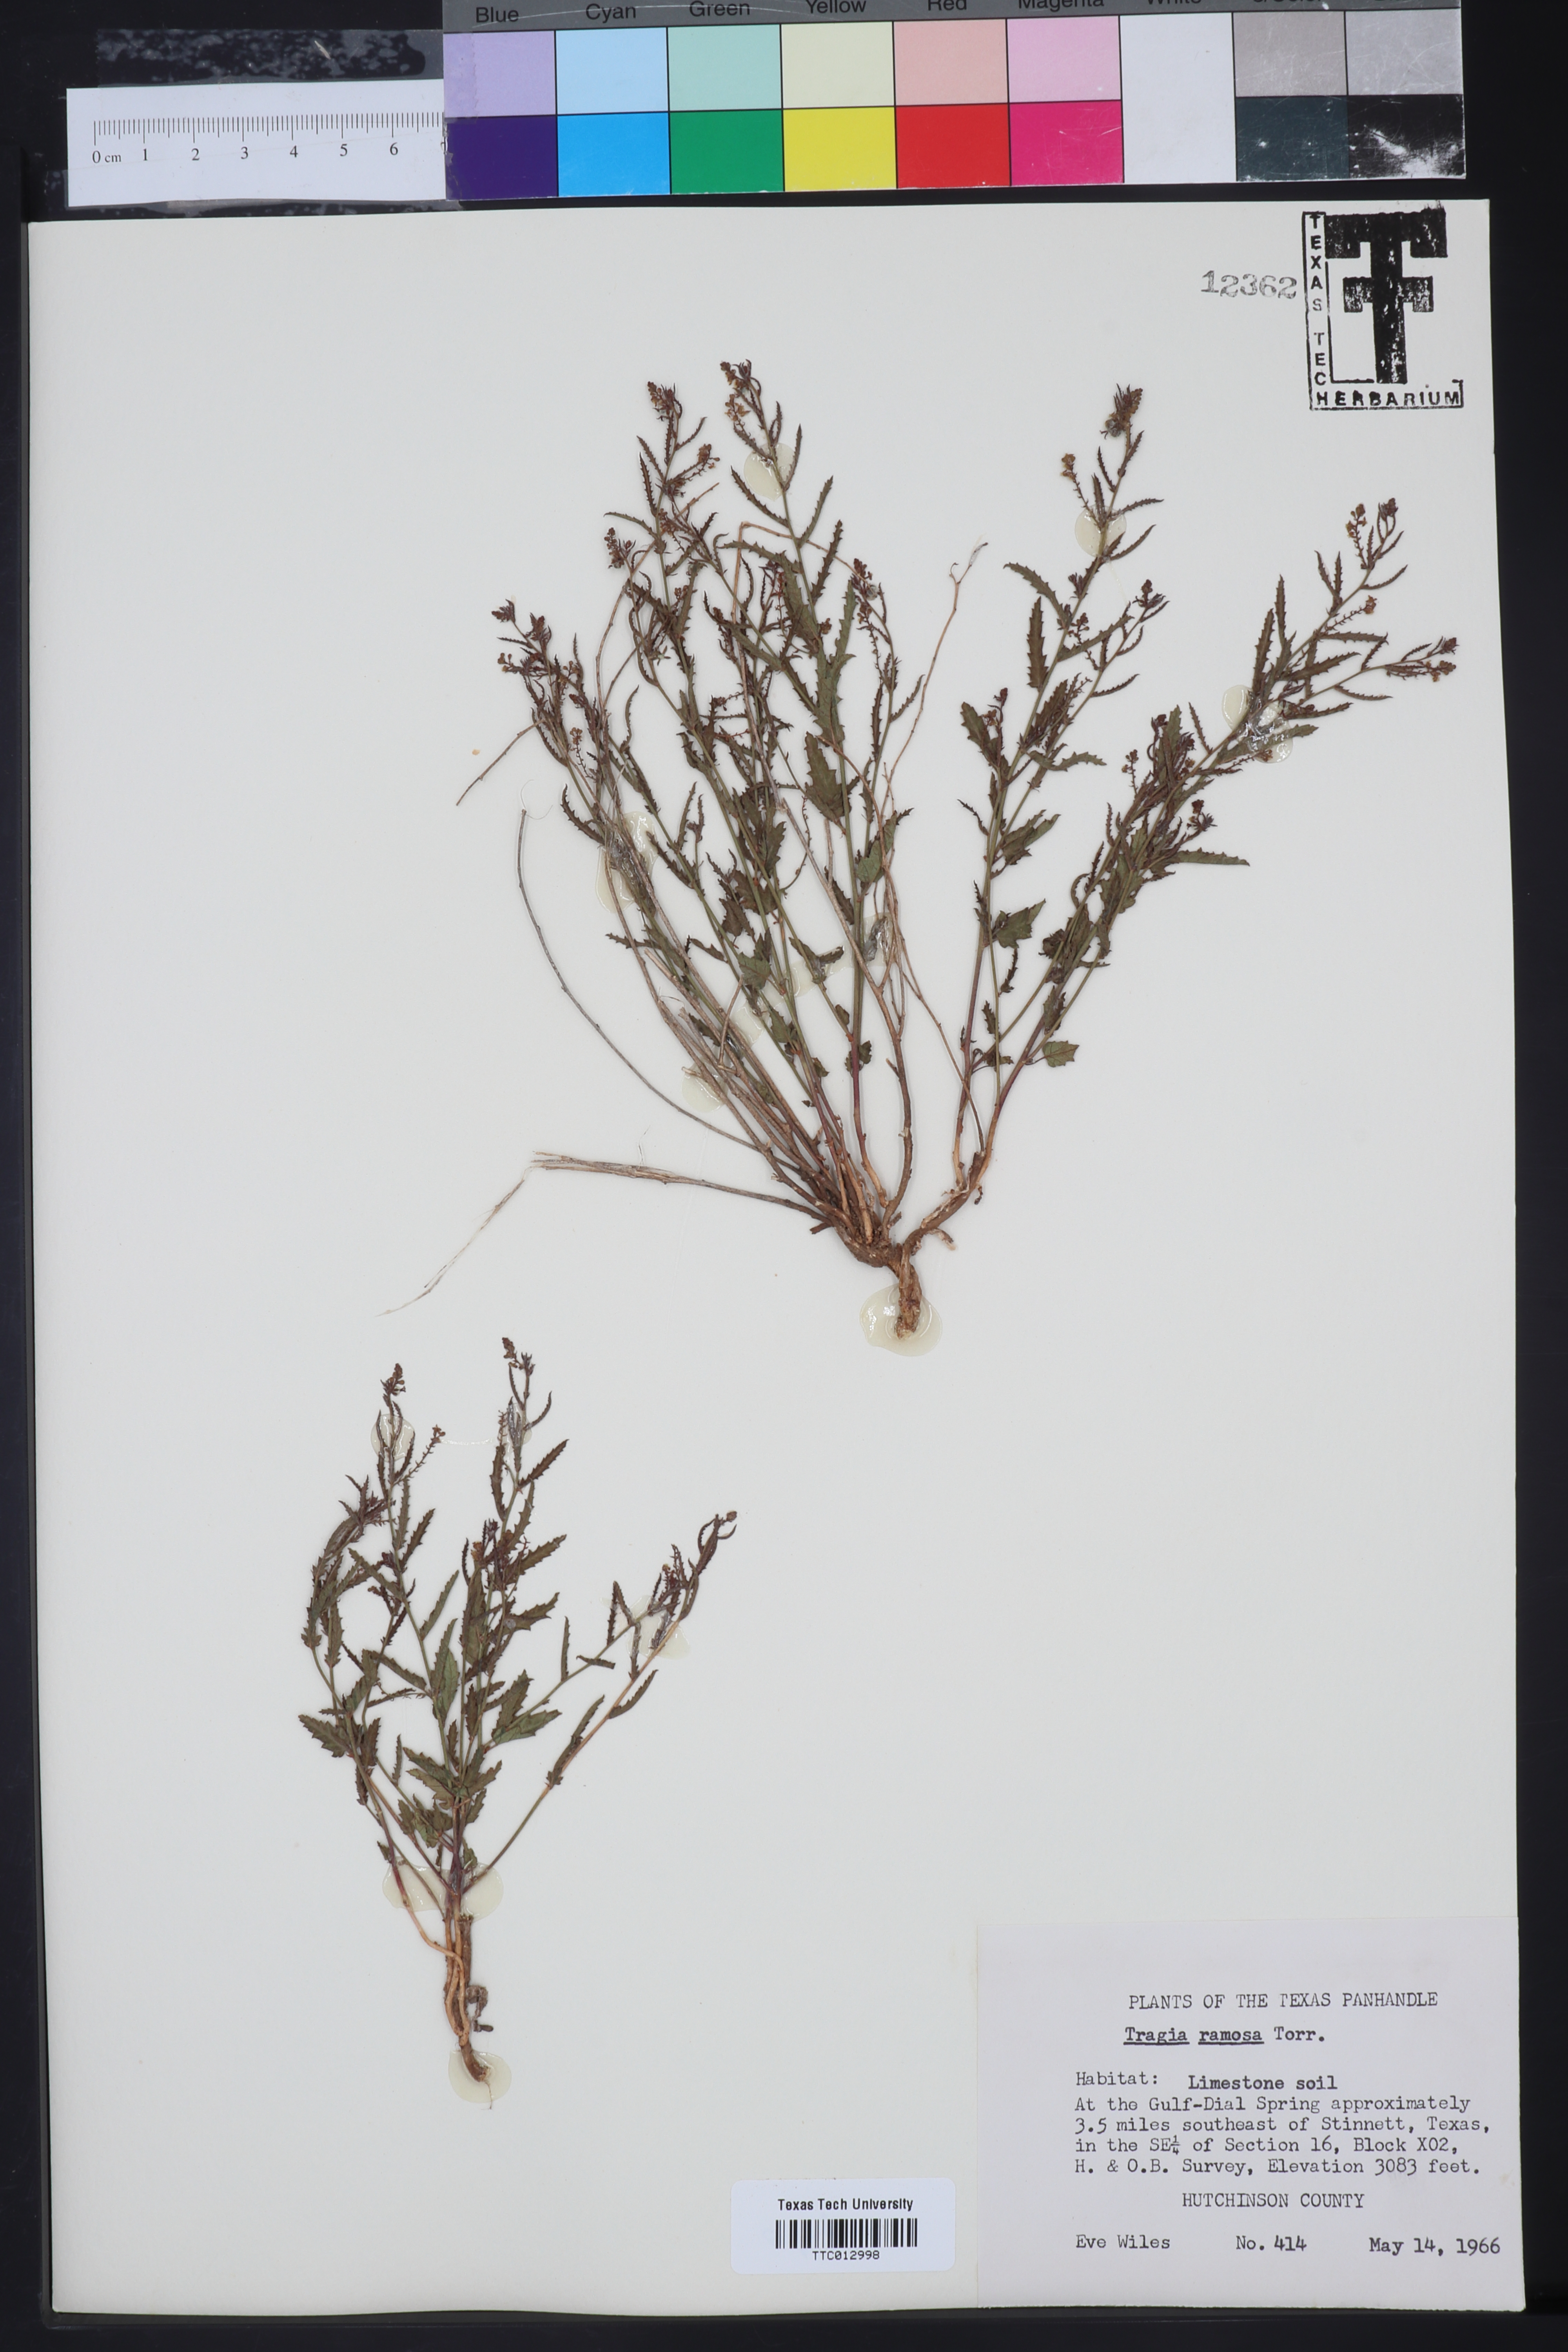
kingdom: Plantae
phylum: Tracheophyta
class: Magnoliopsida
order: Malpighiales
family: Euphorbiaceae
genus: Tragia
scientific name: Tragia ramosa
